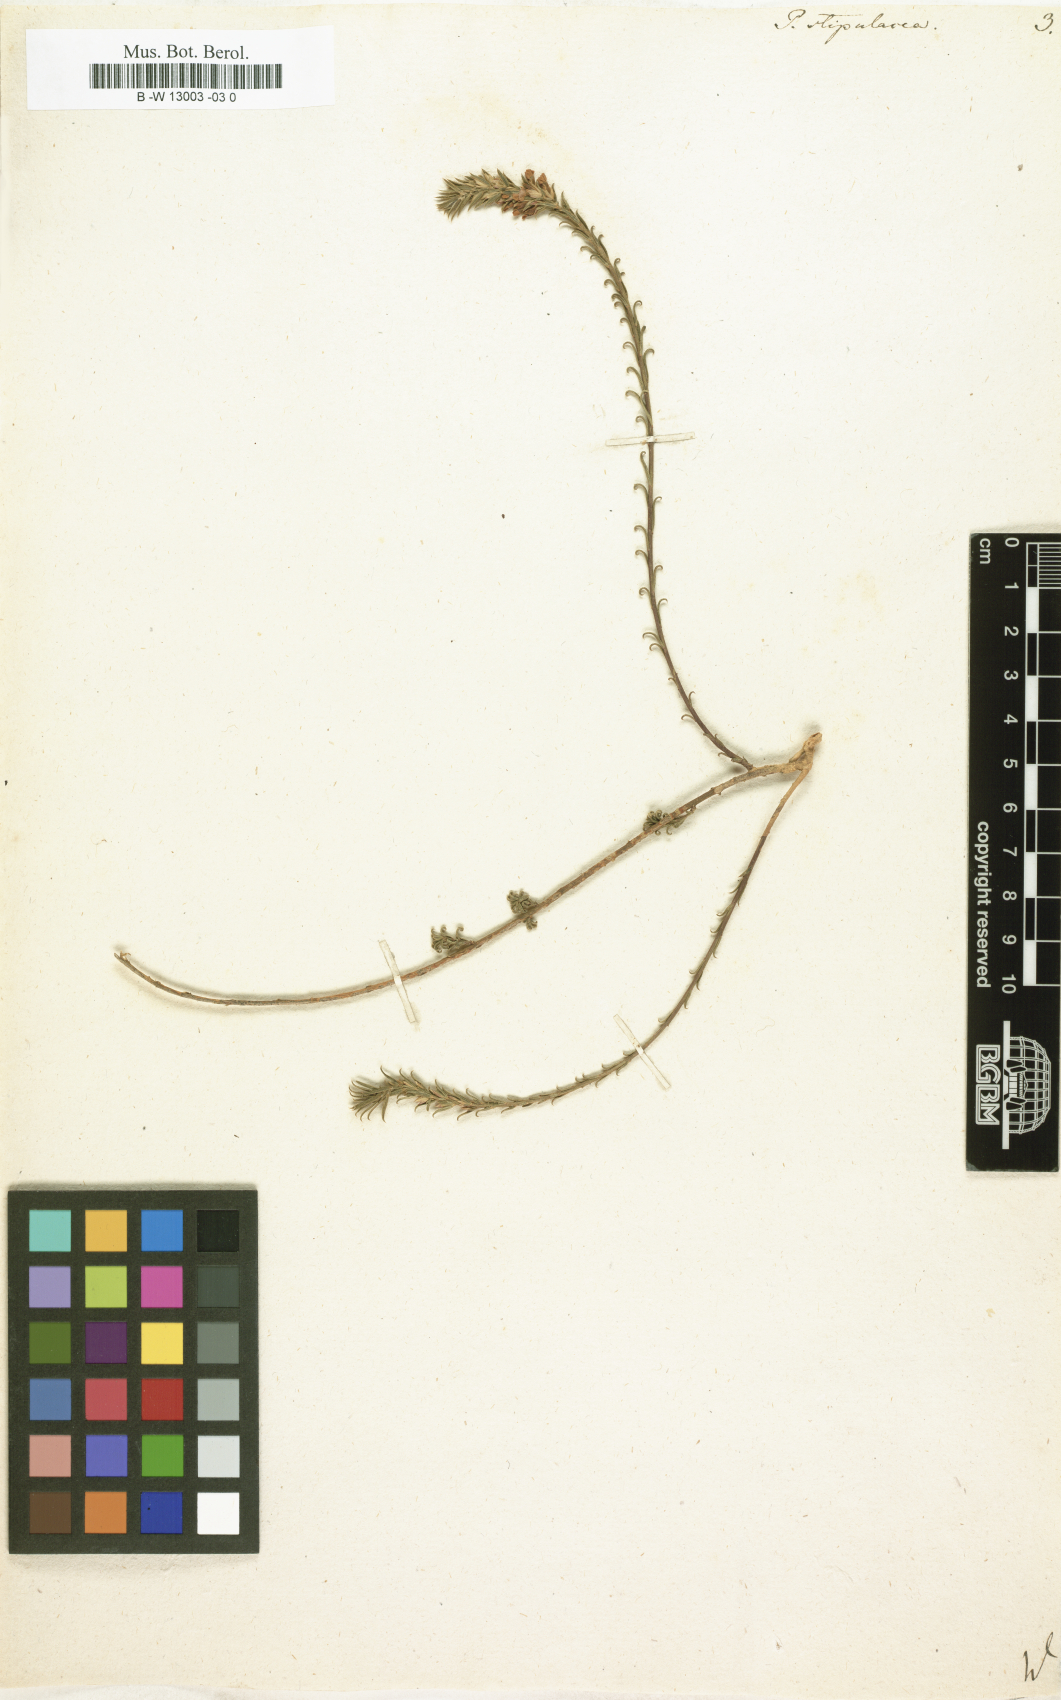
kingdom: Plantae
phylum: Tracheophyta
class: Magnoliopsida
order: Fabales
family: Polygalaceae
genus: Muraltia
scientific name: Muraltia ericoides
